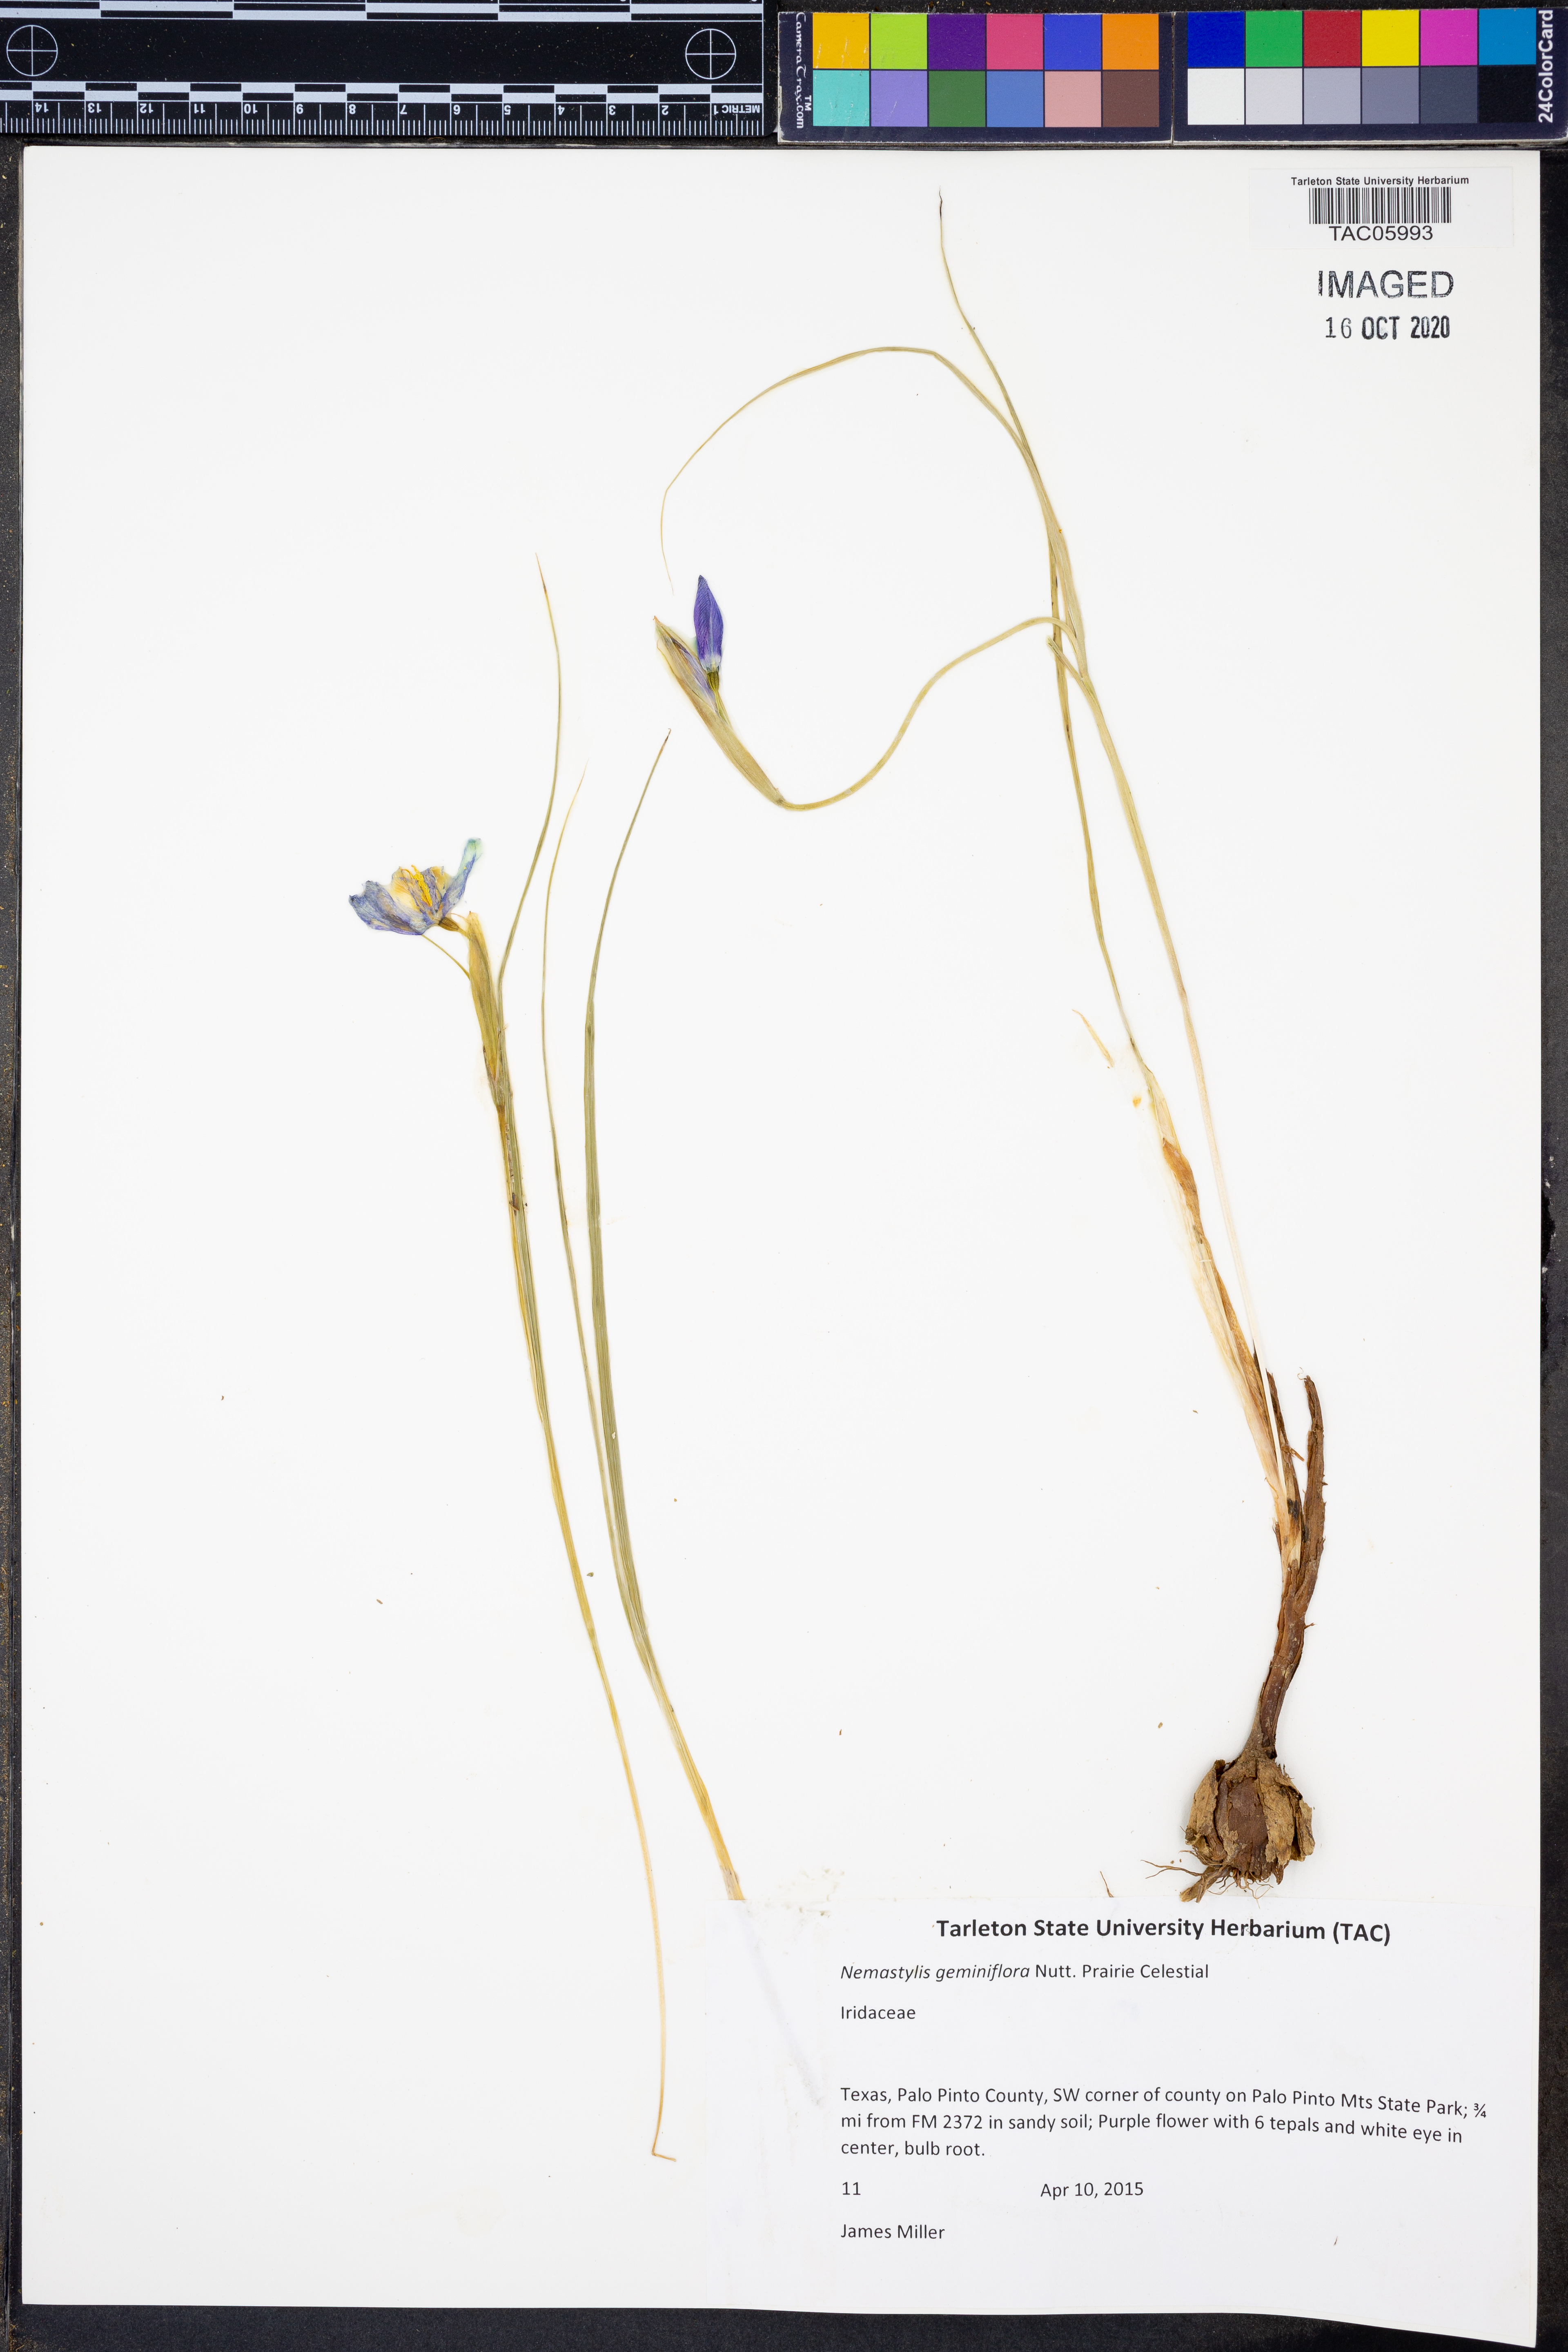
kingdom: Plantae
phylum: Tracheophyta
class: Liliopsida
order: Asparagales
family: Iridaceae
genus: Nemastylis
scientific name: Nemastylis geminiflora
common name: Prairie celestial
